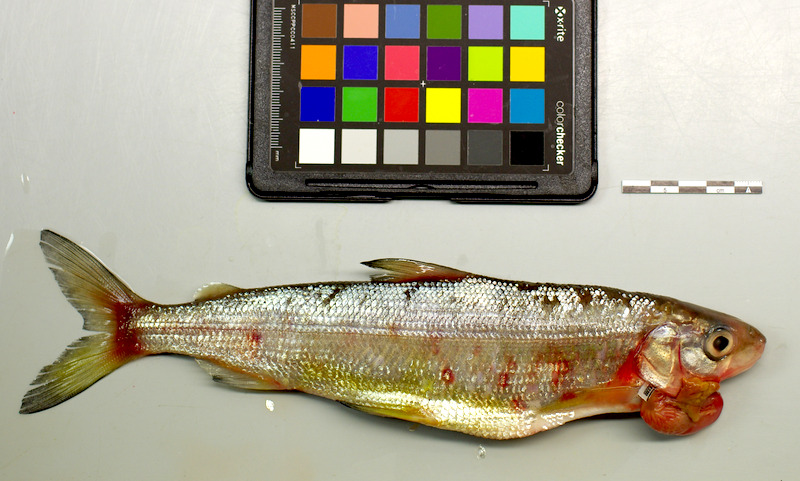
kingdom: Animalia
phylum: Chordata
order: Salmoniformes
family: Salmonidae
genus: Coregonus
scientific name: Coregonus
